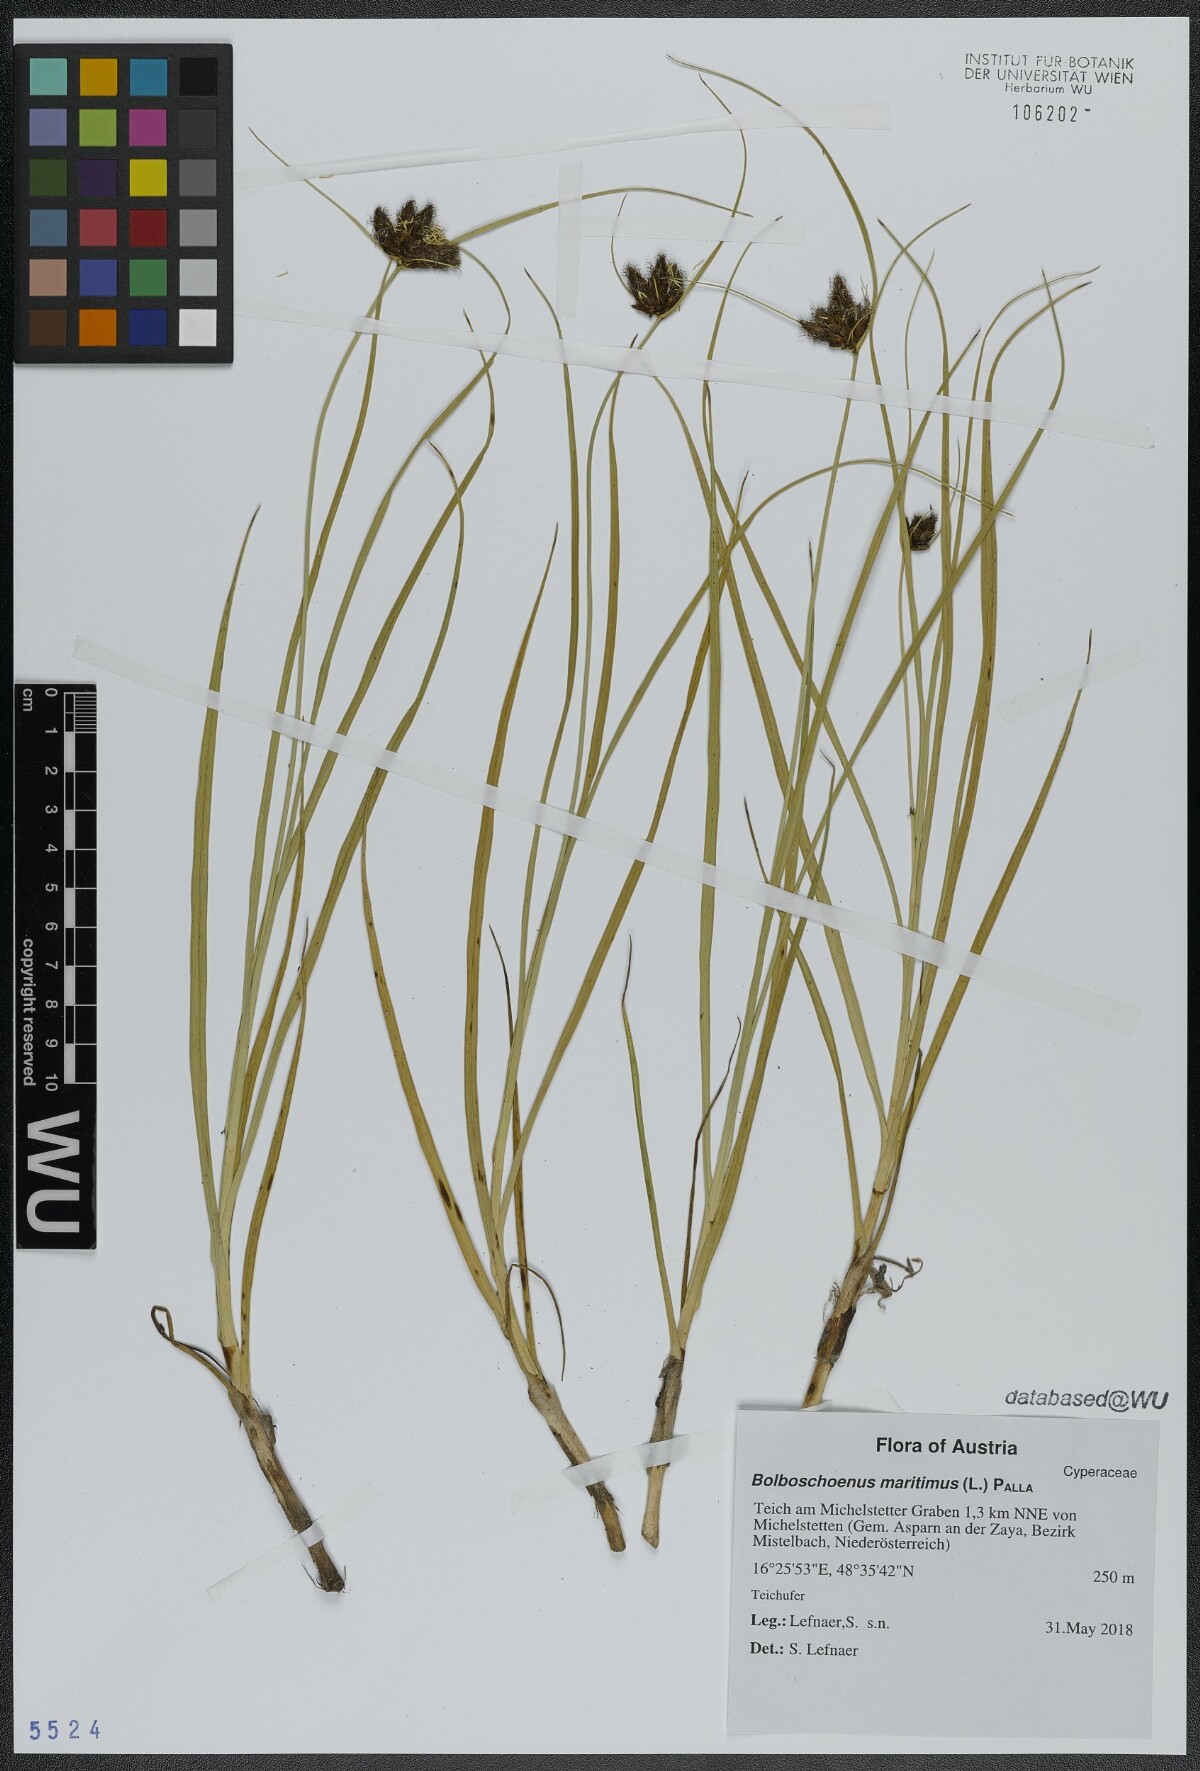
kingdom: Plantae
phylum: Tracheophyta
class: Liliopsida
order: Poales
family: Cyperaceae
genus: Bolboschoenus
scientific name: Bolboschoenus maritimus
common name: Sea club-rush
